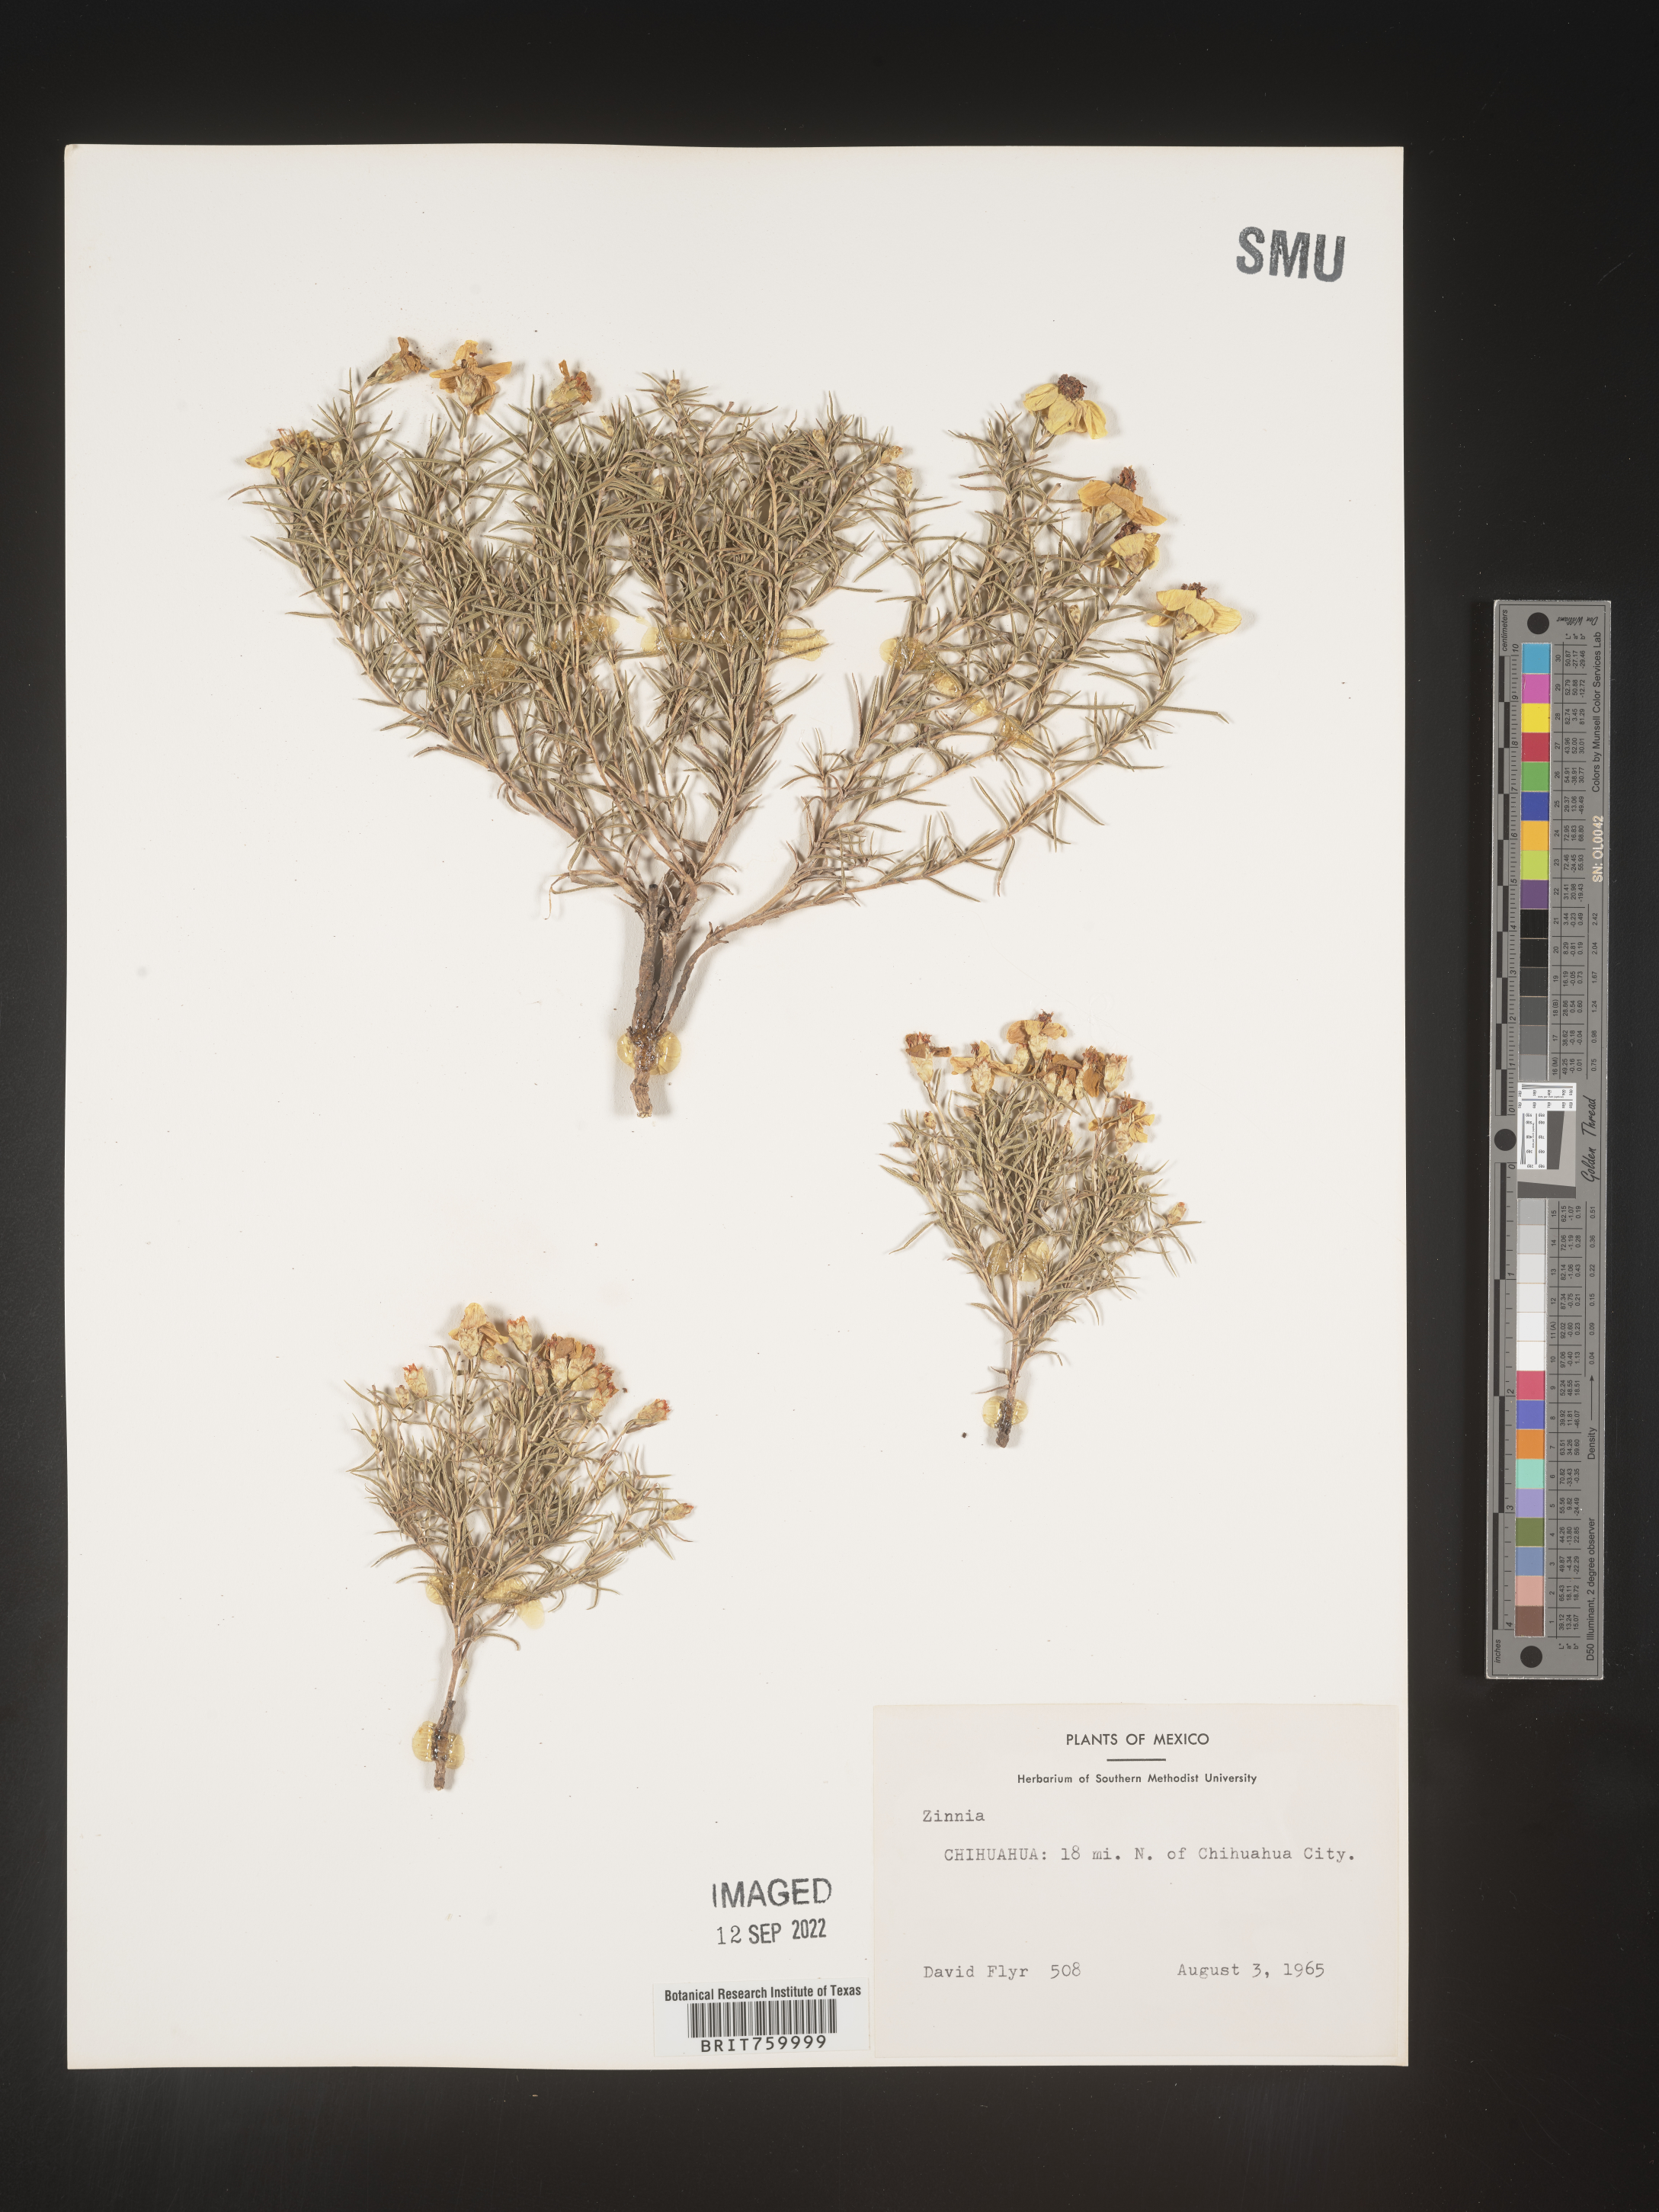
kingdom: Plantae
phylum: Tracheophyta
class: Magnoliopsida
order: Asterales
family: Asteraceae
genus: Zinnia
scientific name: Zinnia
